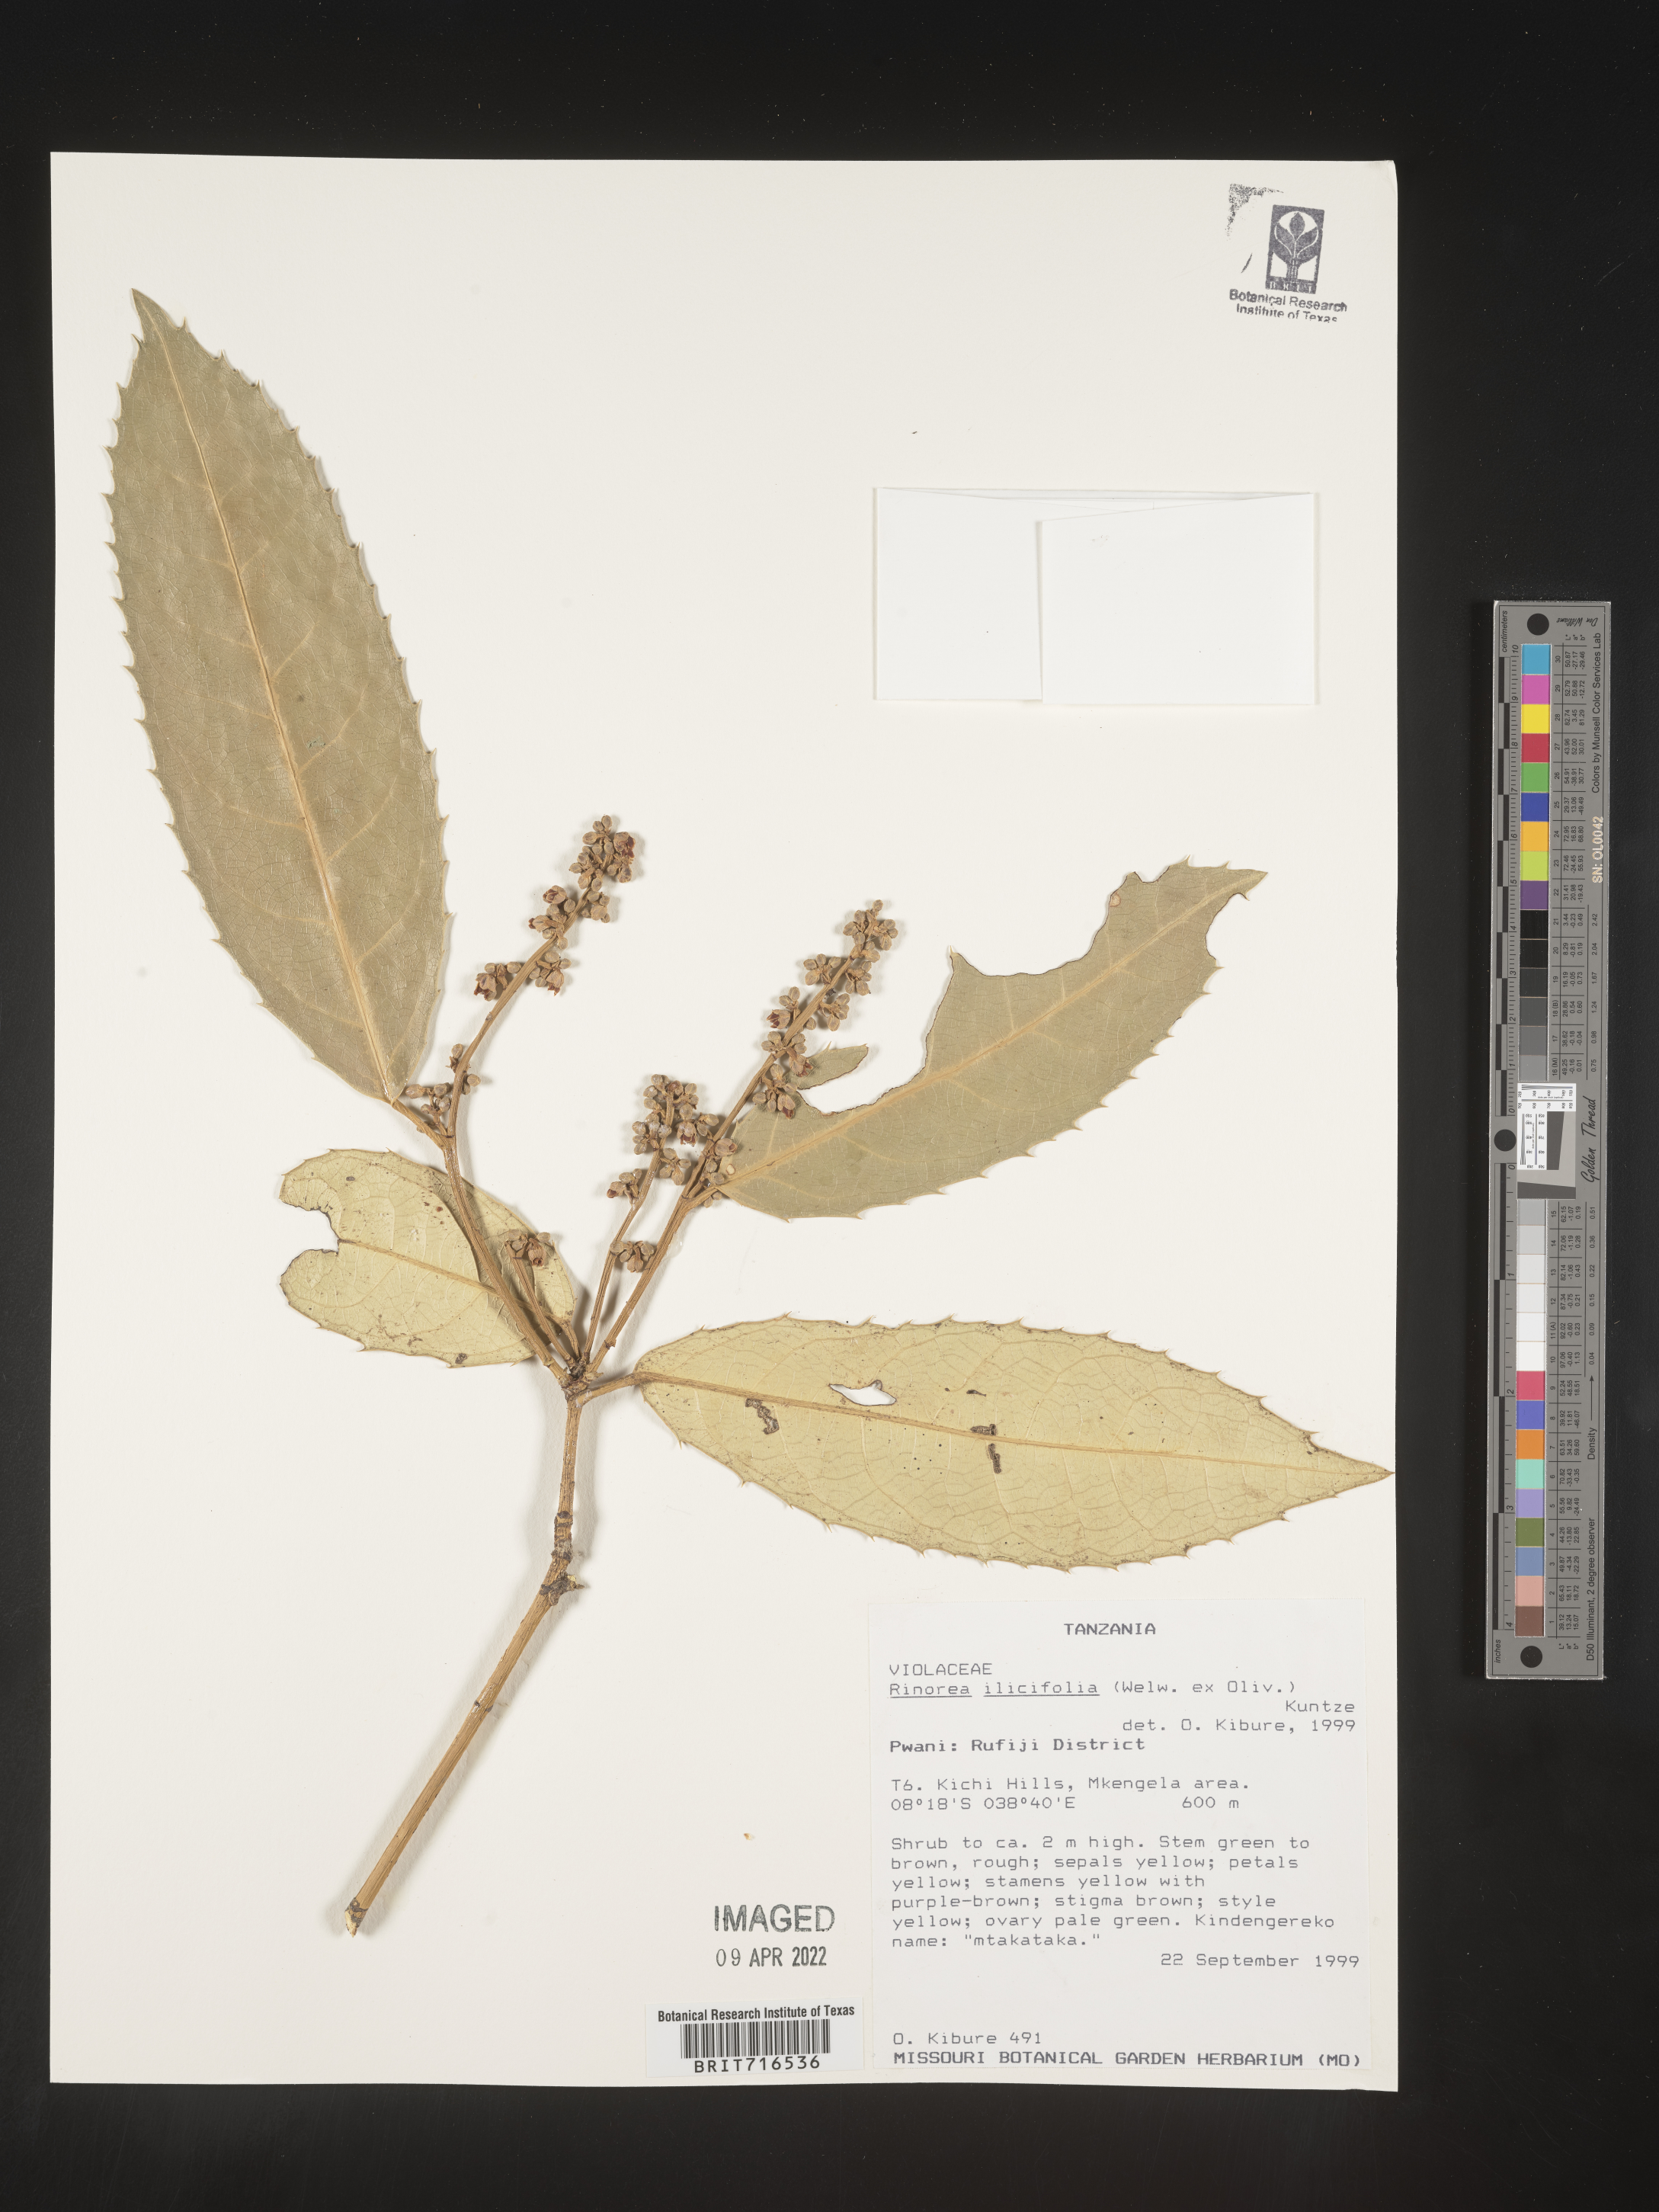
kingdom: Plantae
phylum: Tracheophyta
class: Magnoliopsida
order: Malpighiales
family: Violaceae
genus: Rinorea
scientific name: Rinorea
